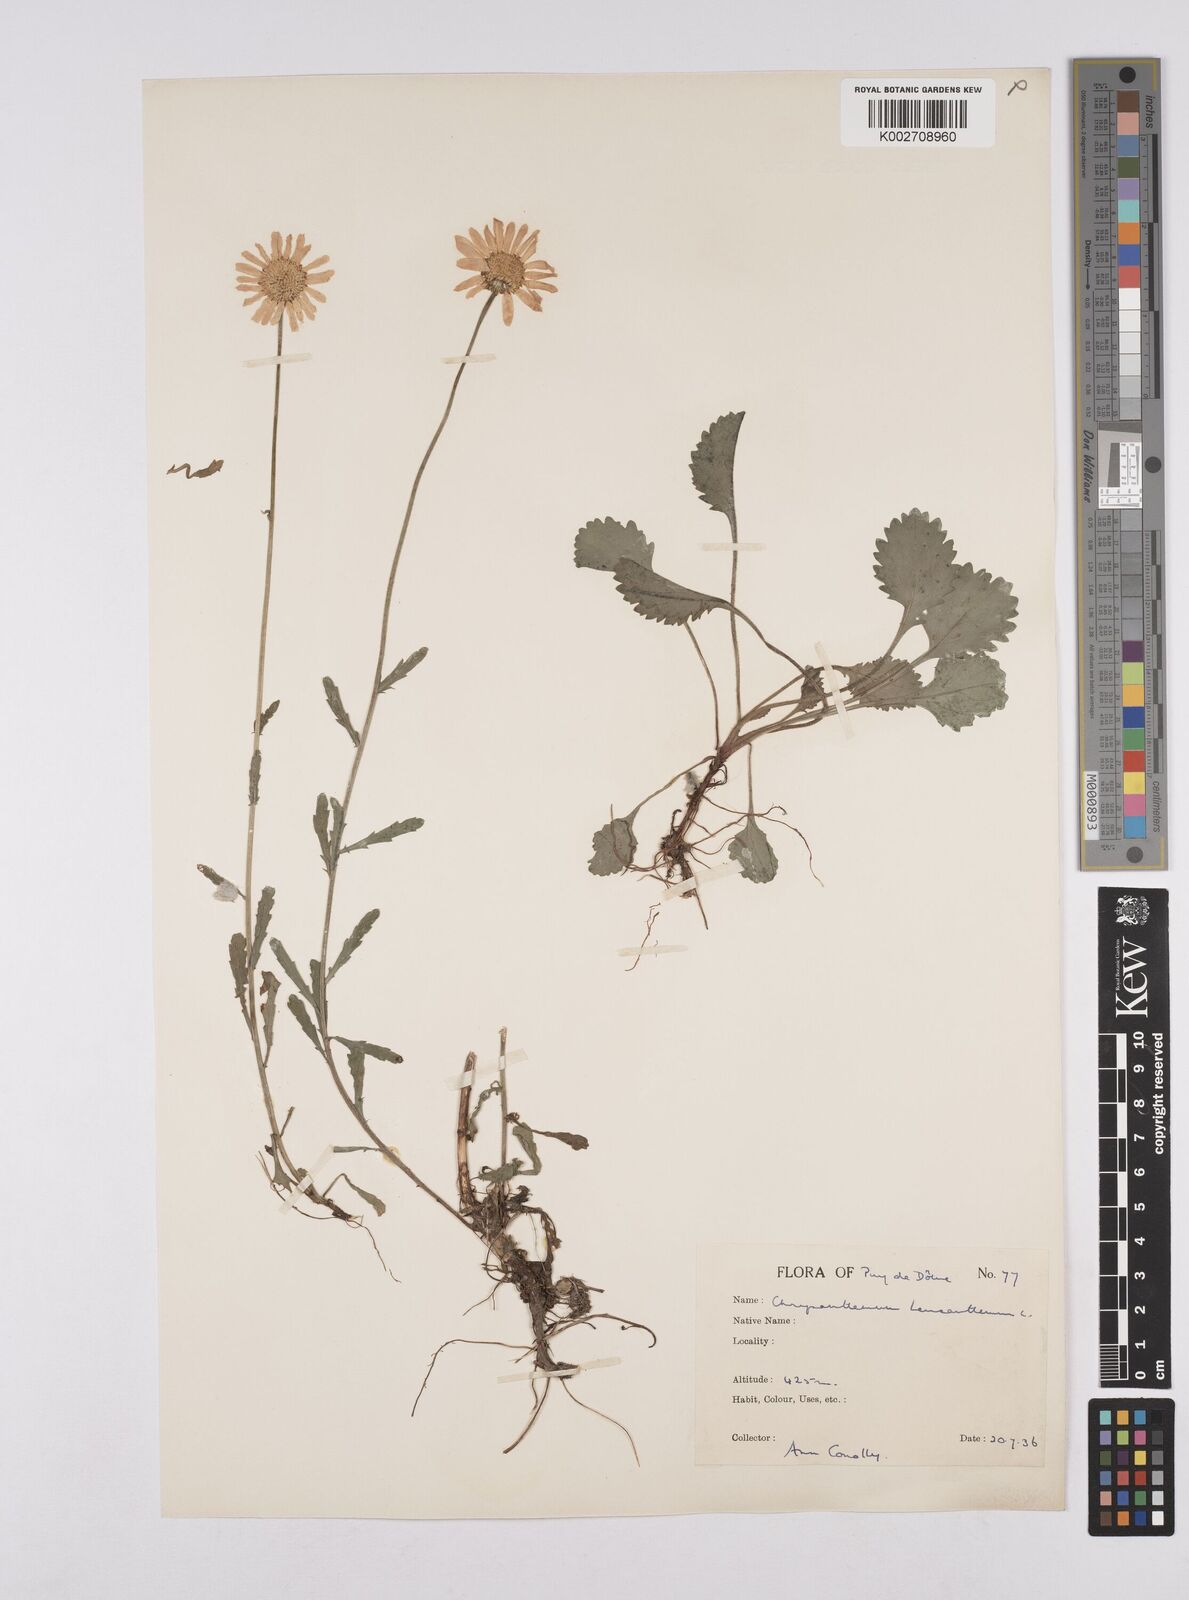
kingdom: Plantae
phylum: Tracheophyta
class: Magnoliopsida
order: Asterales
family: Asteraceae
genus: Leucanthemum
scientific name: Leucanthemum vulgare
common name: Oxeye daisy
